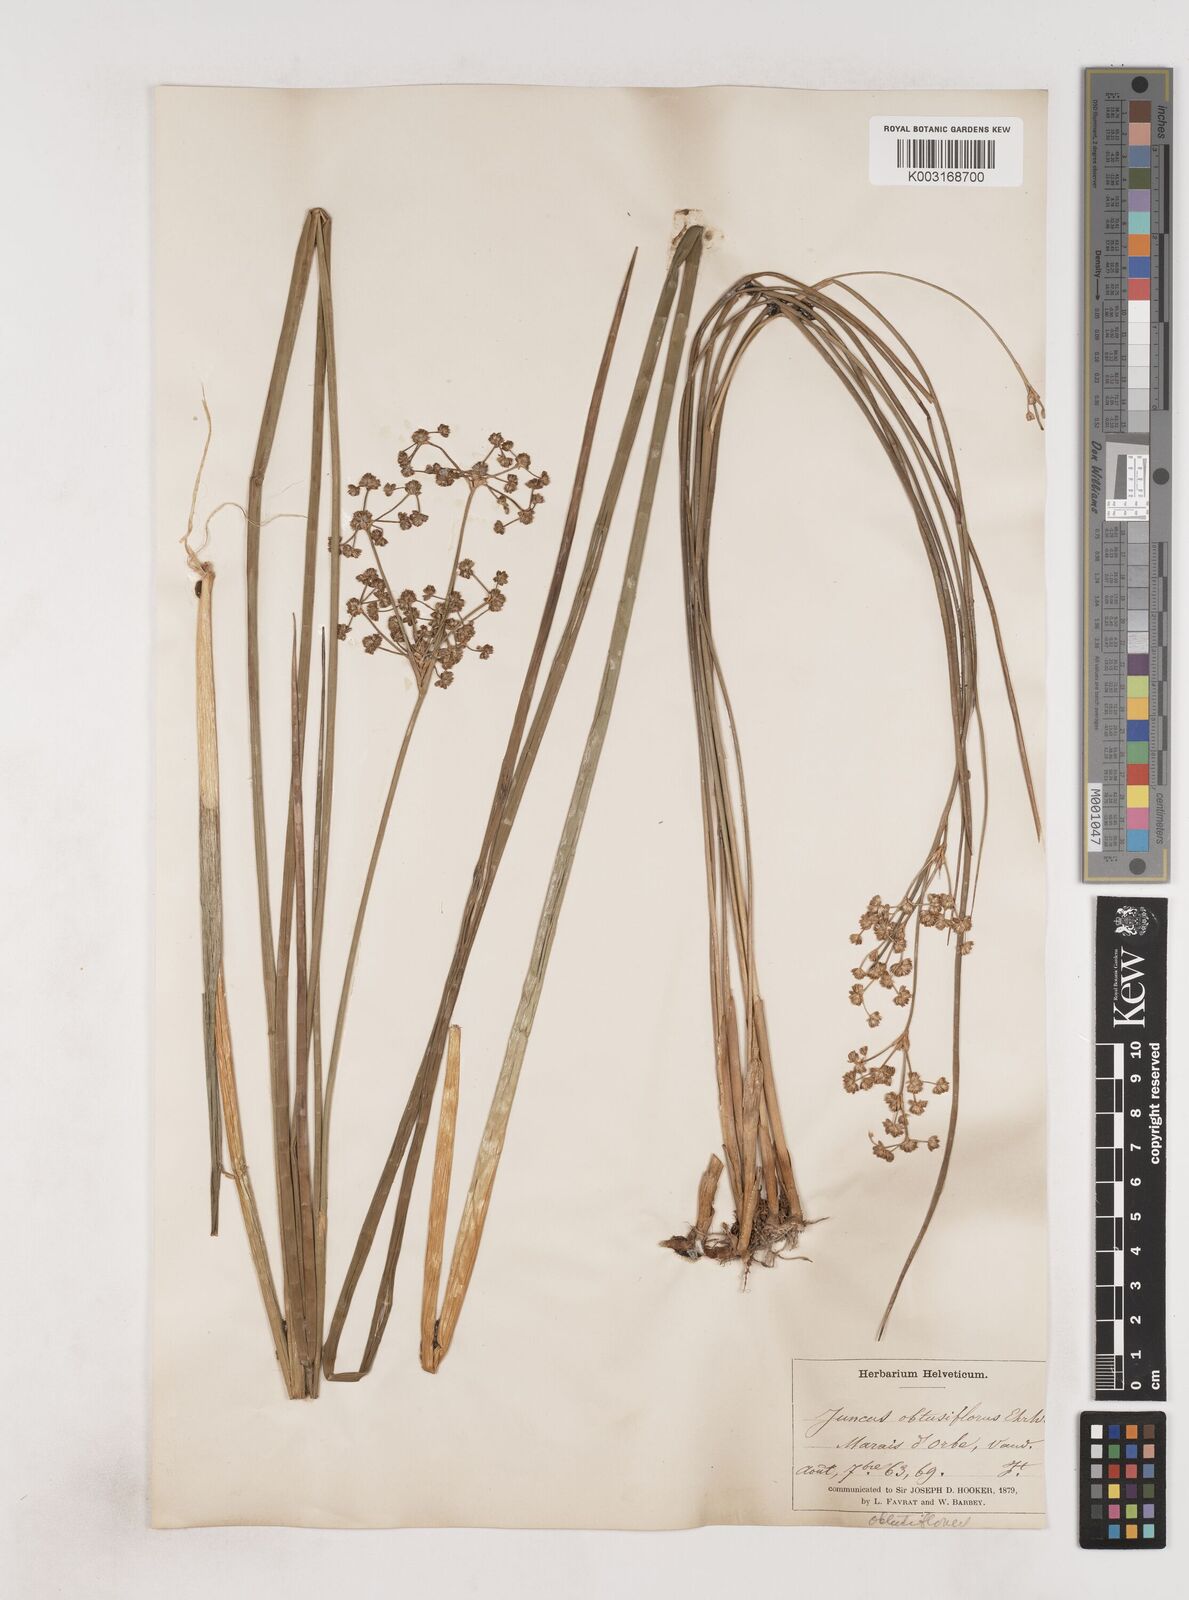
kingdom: Plantae
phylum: Tracheophyta
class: Liliopsida
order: Poales
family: Juncaceae
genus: Juncus
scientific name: Juncus subnodulosus
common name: Blunt-flowered rush
